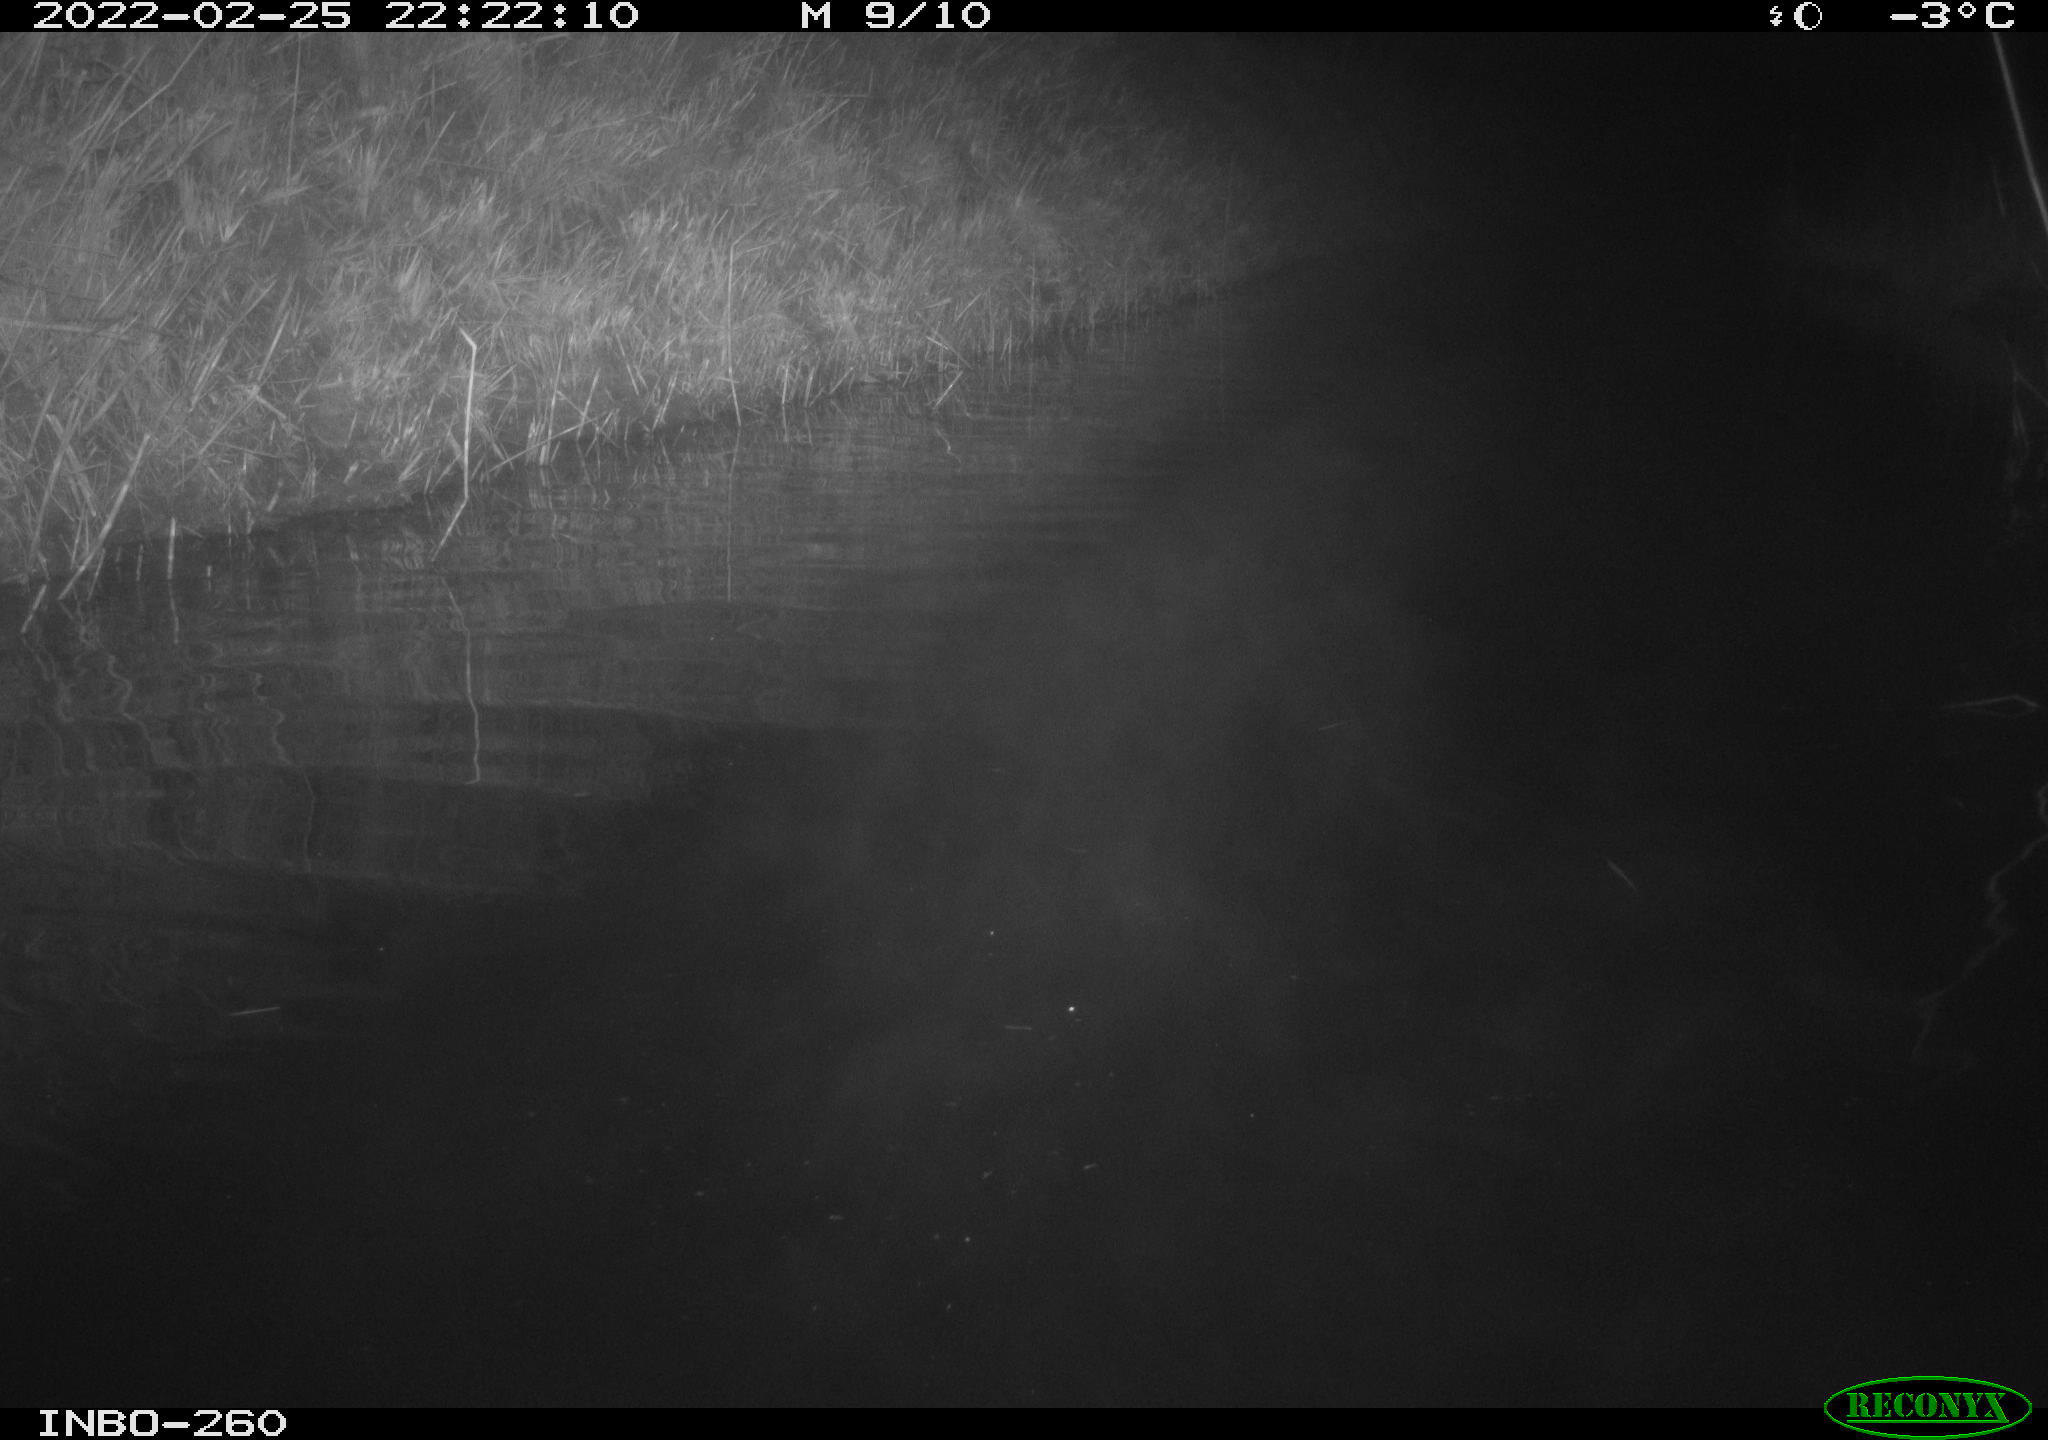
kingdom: Animalia
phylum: Chordata
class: Mammalia
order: Rodentia
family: Cricetidae
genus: Ondatra
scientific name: Ondatra zibethicus
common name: Muskrat
